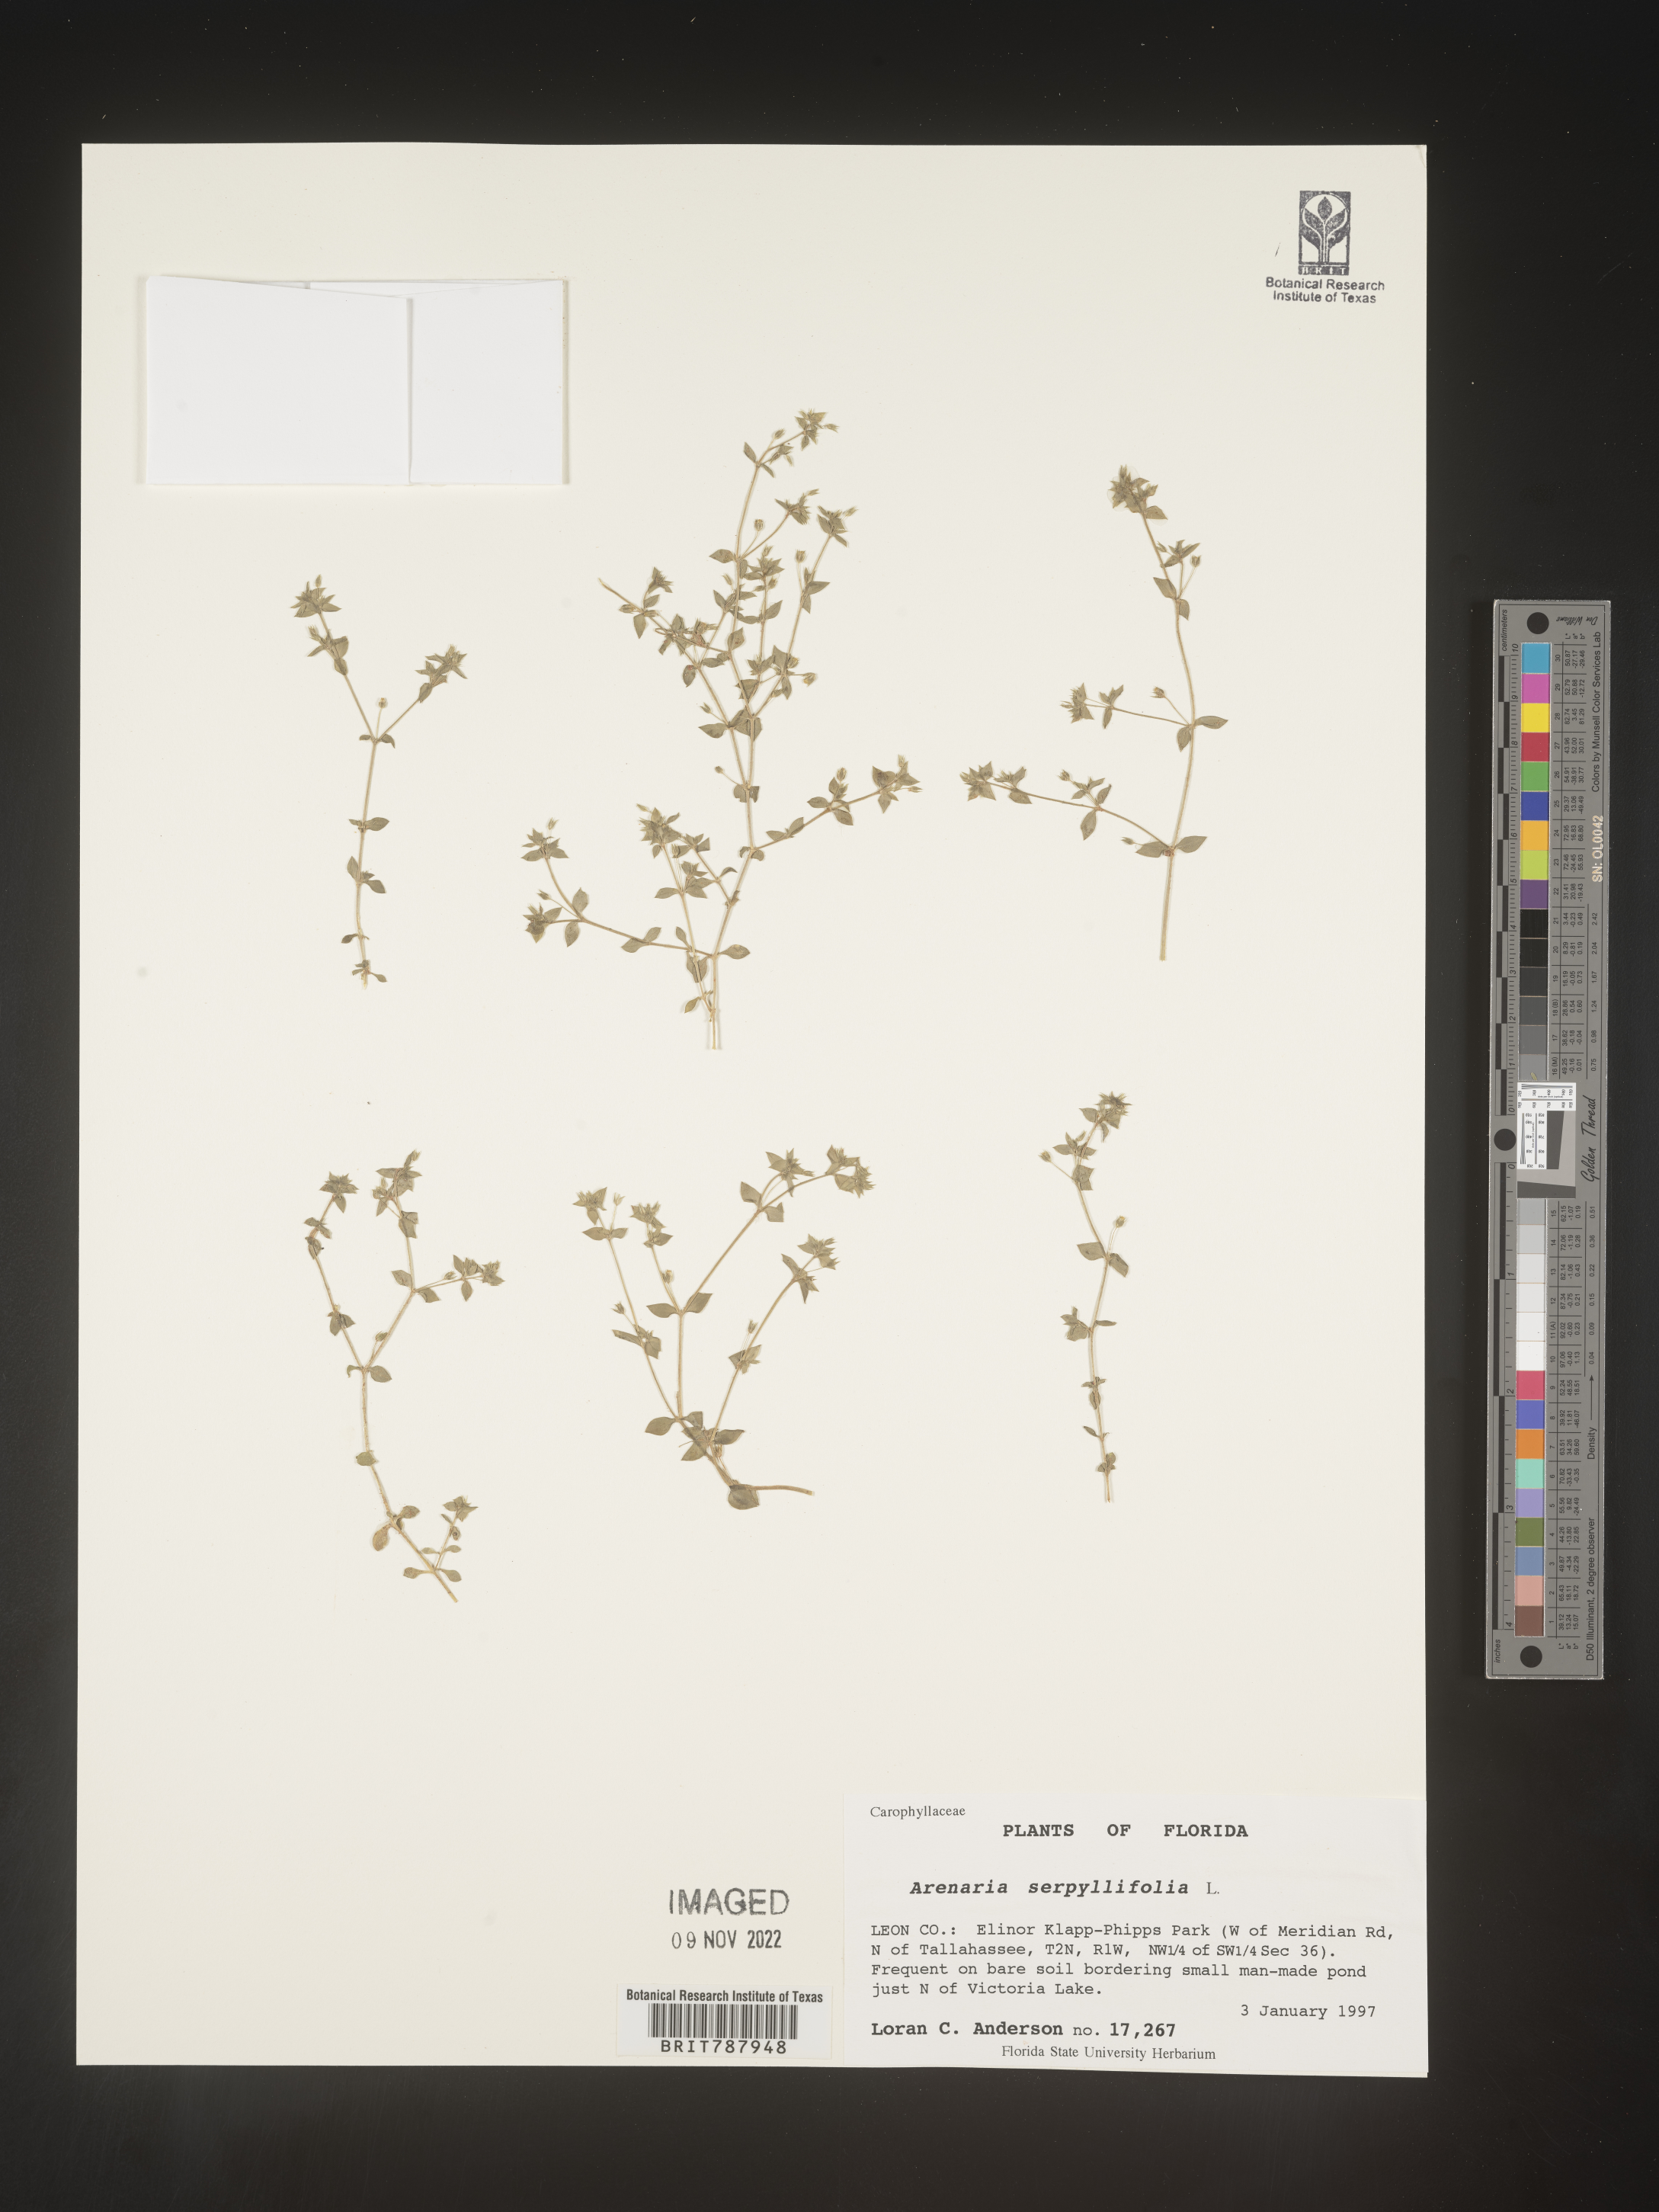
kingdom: Plantae
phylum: Tracheophyta
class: Magnoliopsida
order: Caryophyllales
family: Caryophyllaceae
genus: Arenaria
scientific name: Arenaria serpyllifolia
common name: Thyme-leaved sandwort
